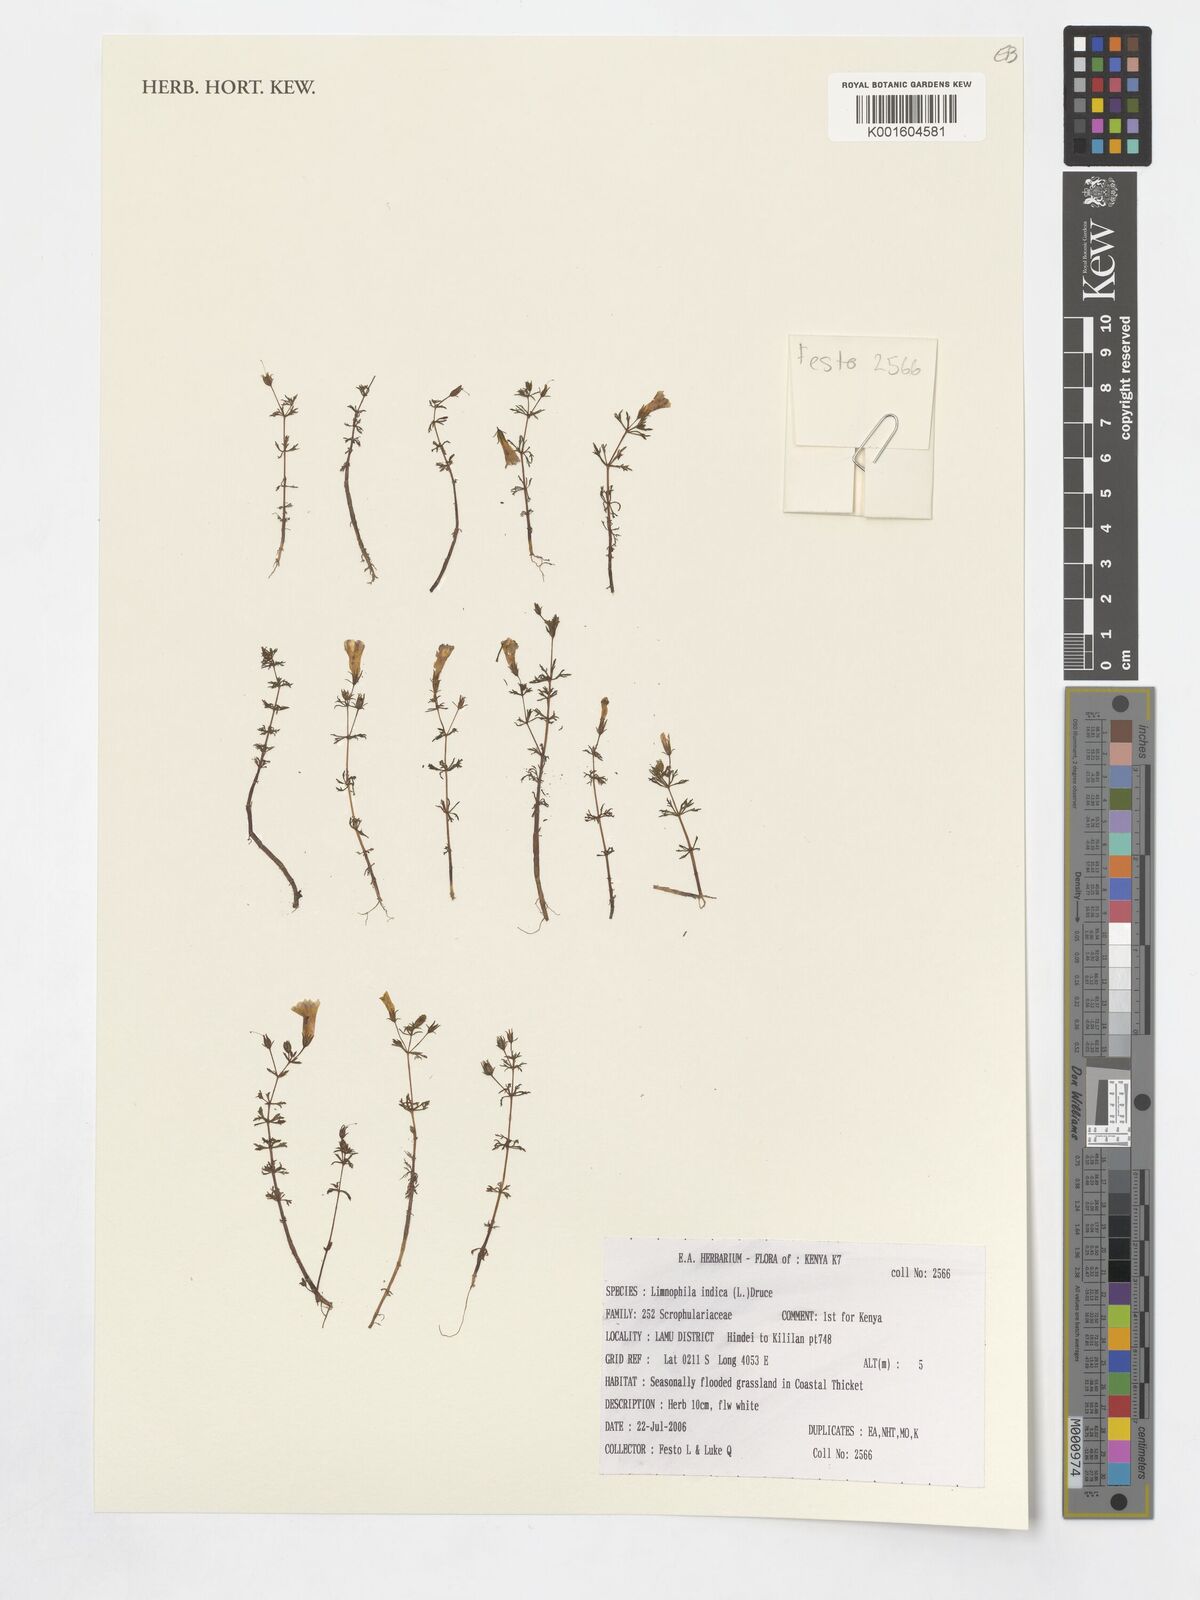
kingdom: Plantae
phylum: Tracheophyta
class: Magnoliopsida
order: Lamiales
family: Plantaginaceae
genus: Limnophila
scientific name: Limnophila indica
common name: Indian marshweed
